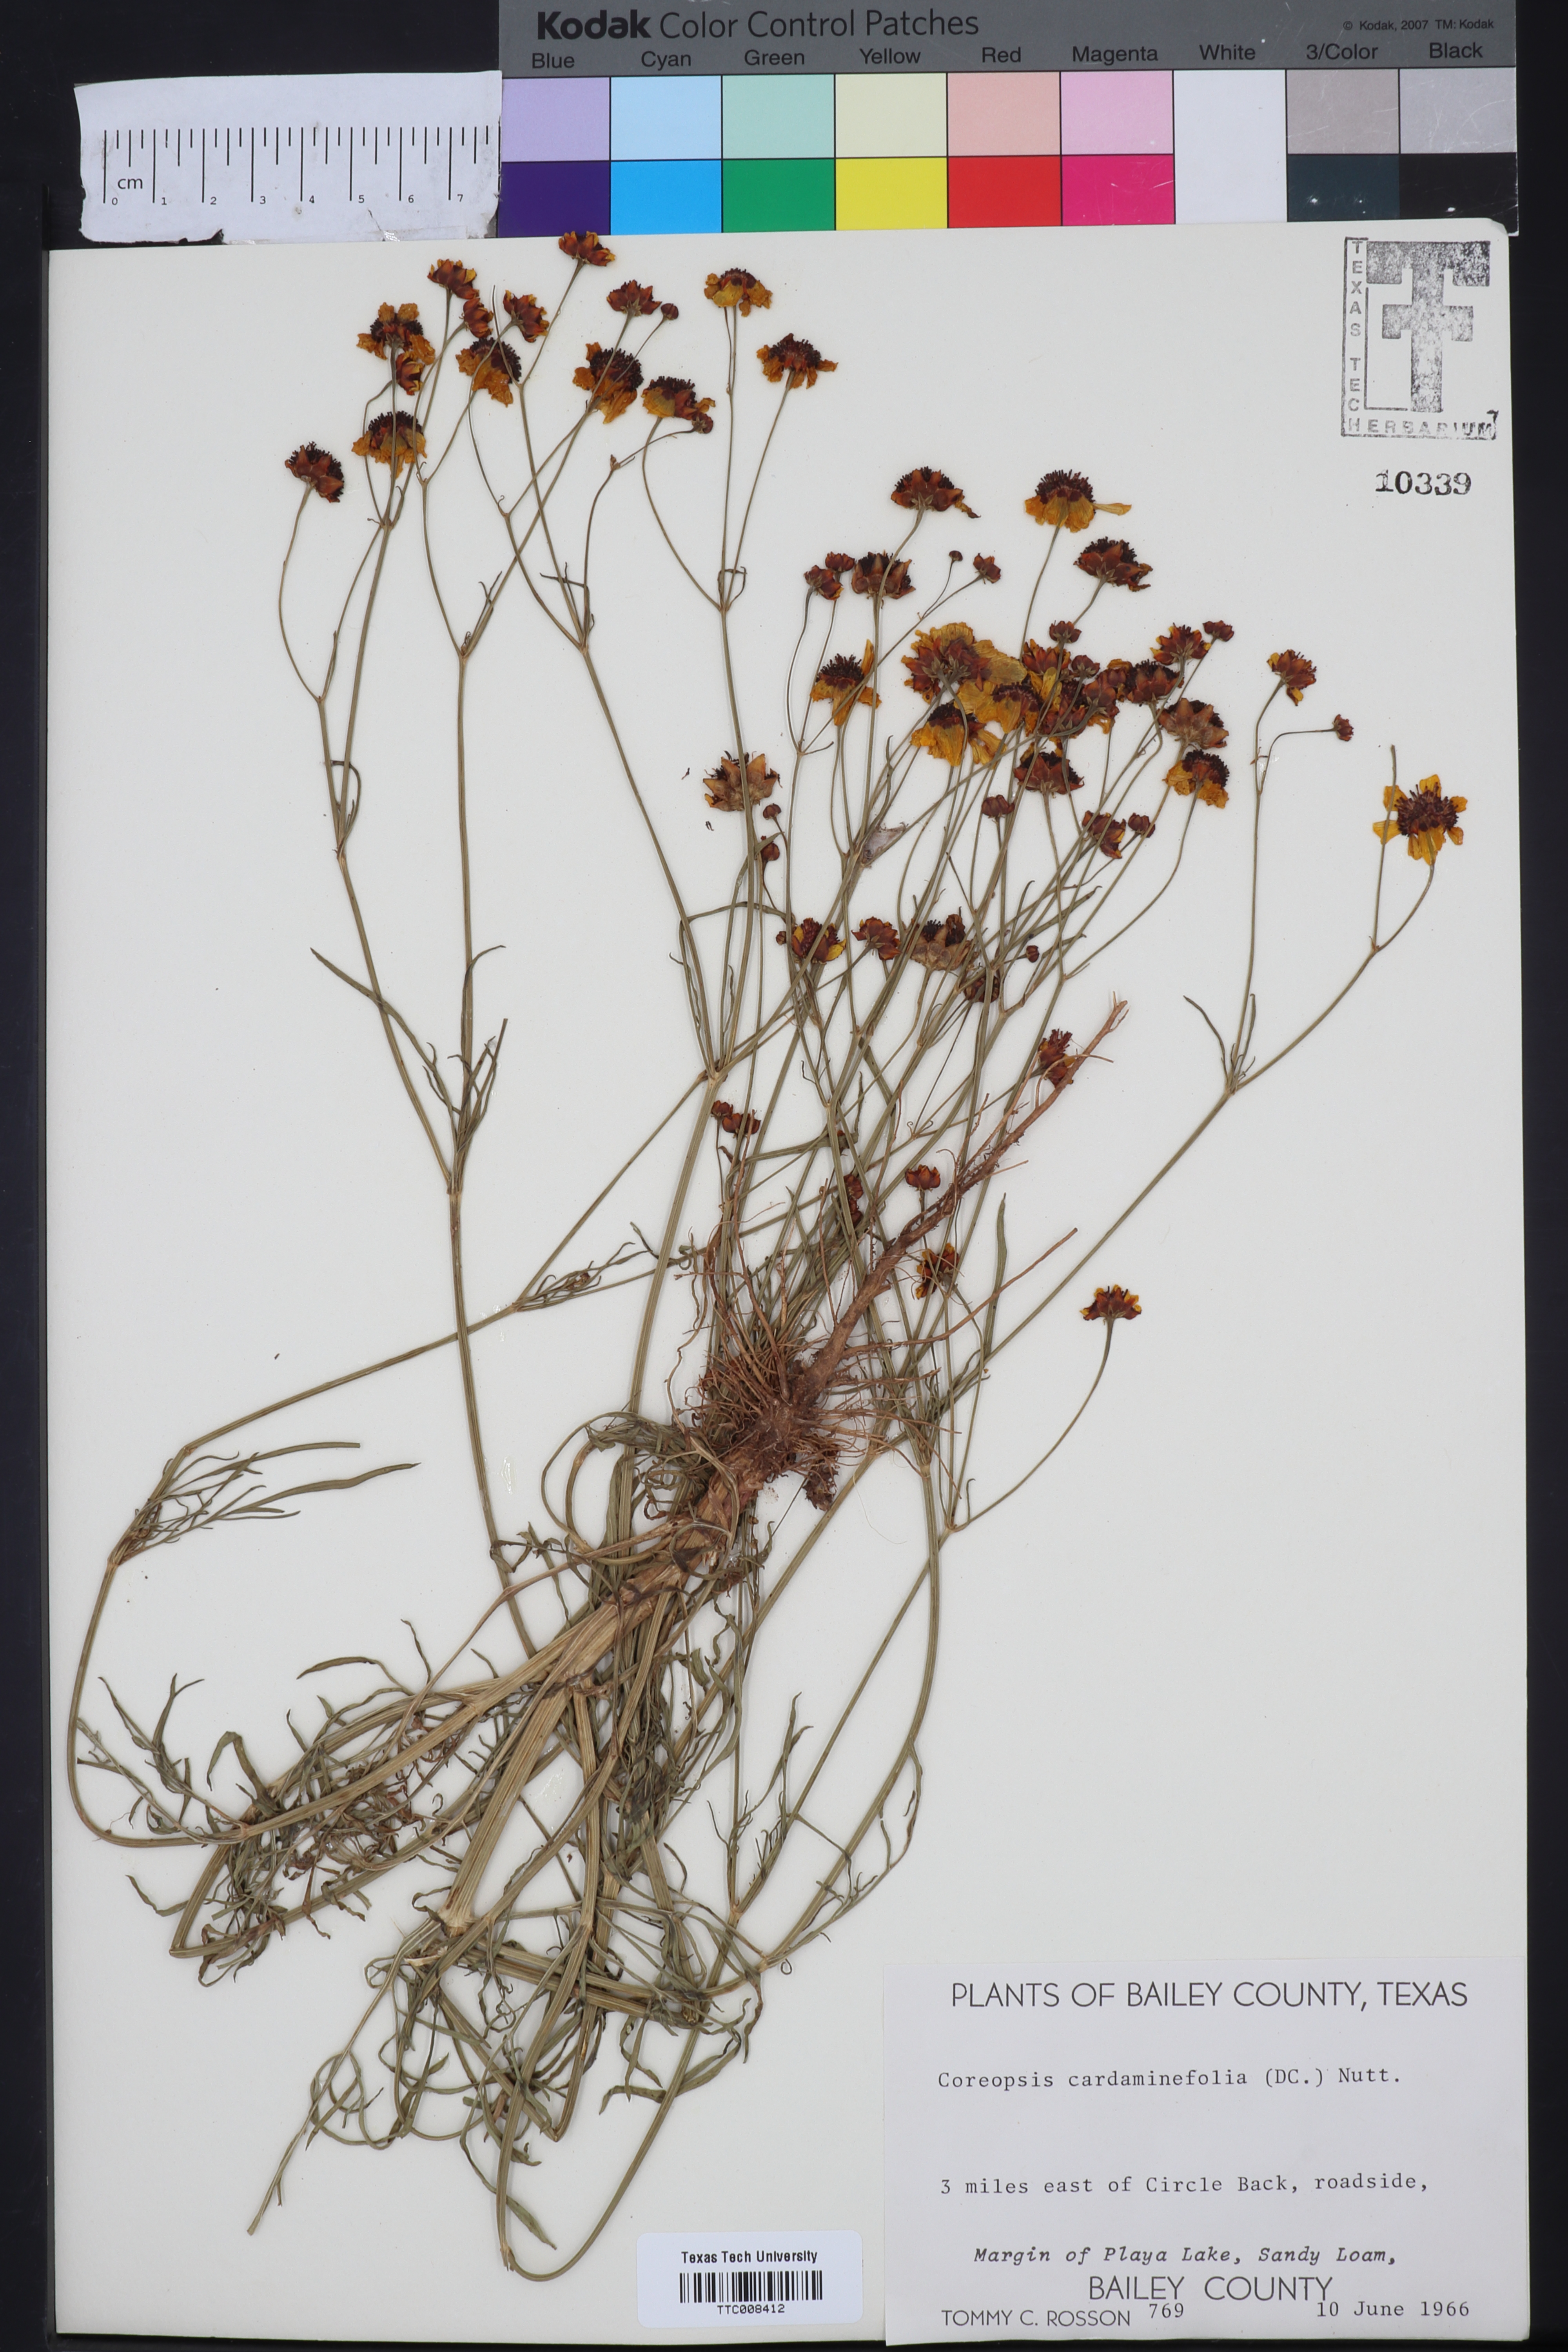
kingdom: Plantae
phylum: Tracheophyta
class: Magnoliopsida
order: Asterales
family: Asteraceae
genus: Coreopsis
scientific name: Coreopsis tinctoria
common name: Garden tickseed
